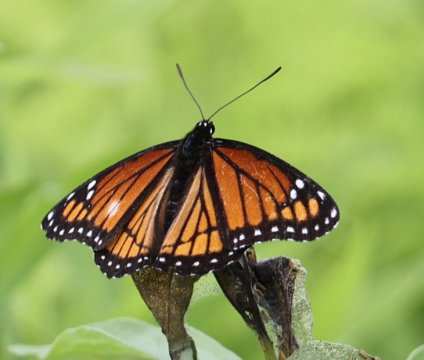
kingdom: Animalia
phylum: Arthropoda
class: Insecta
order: Lepidoptera
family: Nymphalidae
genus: Limenitis
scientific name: Limenitis archippus
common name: Viceroy
